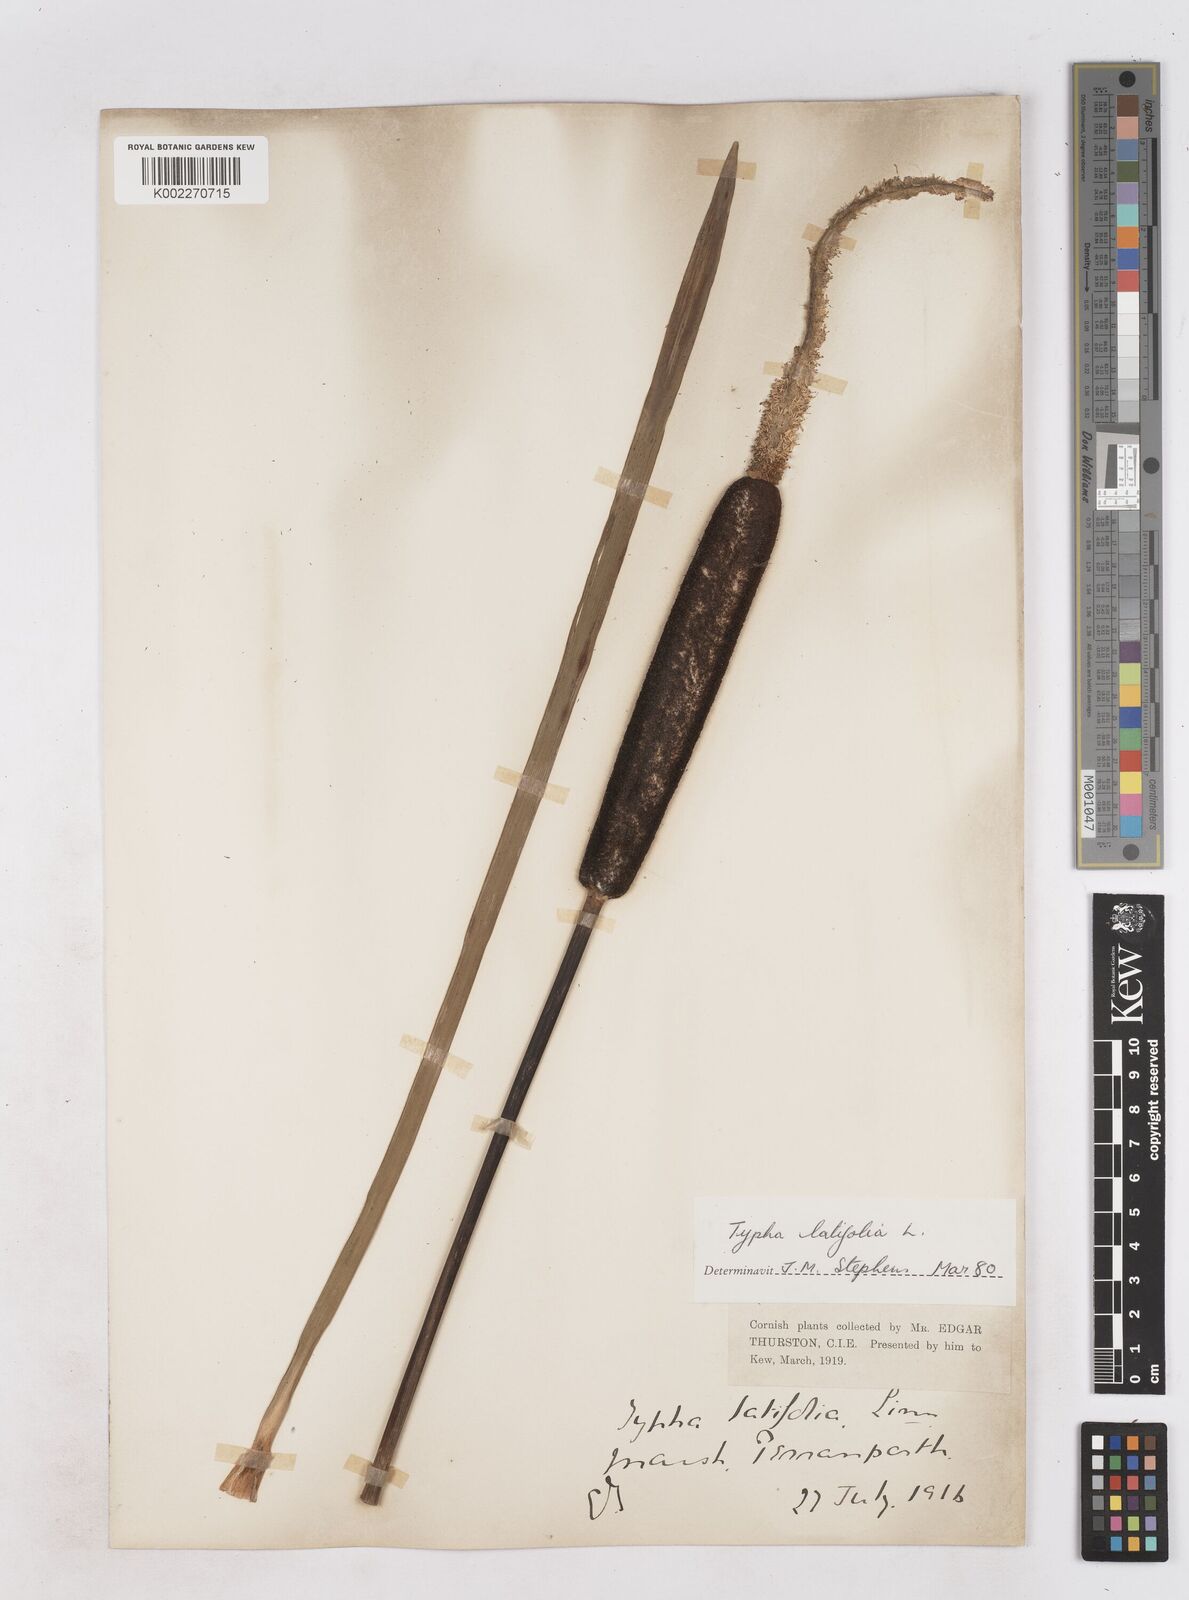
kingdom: Plantae
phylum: Tracheophyta
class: Liliopsida
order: Poales
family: Typhaceae
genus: Typha
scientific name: Typha latifolia
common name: Broadleaf cattail
